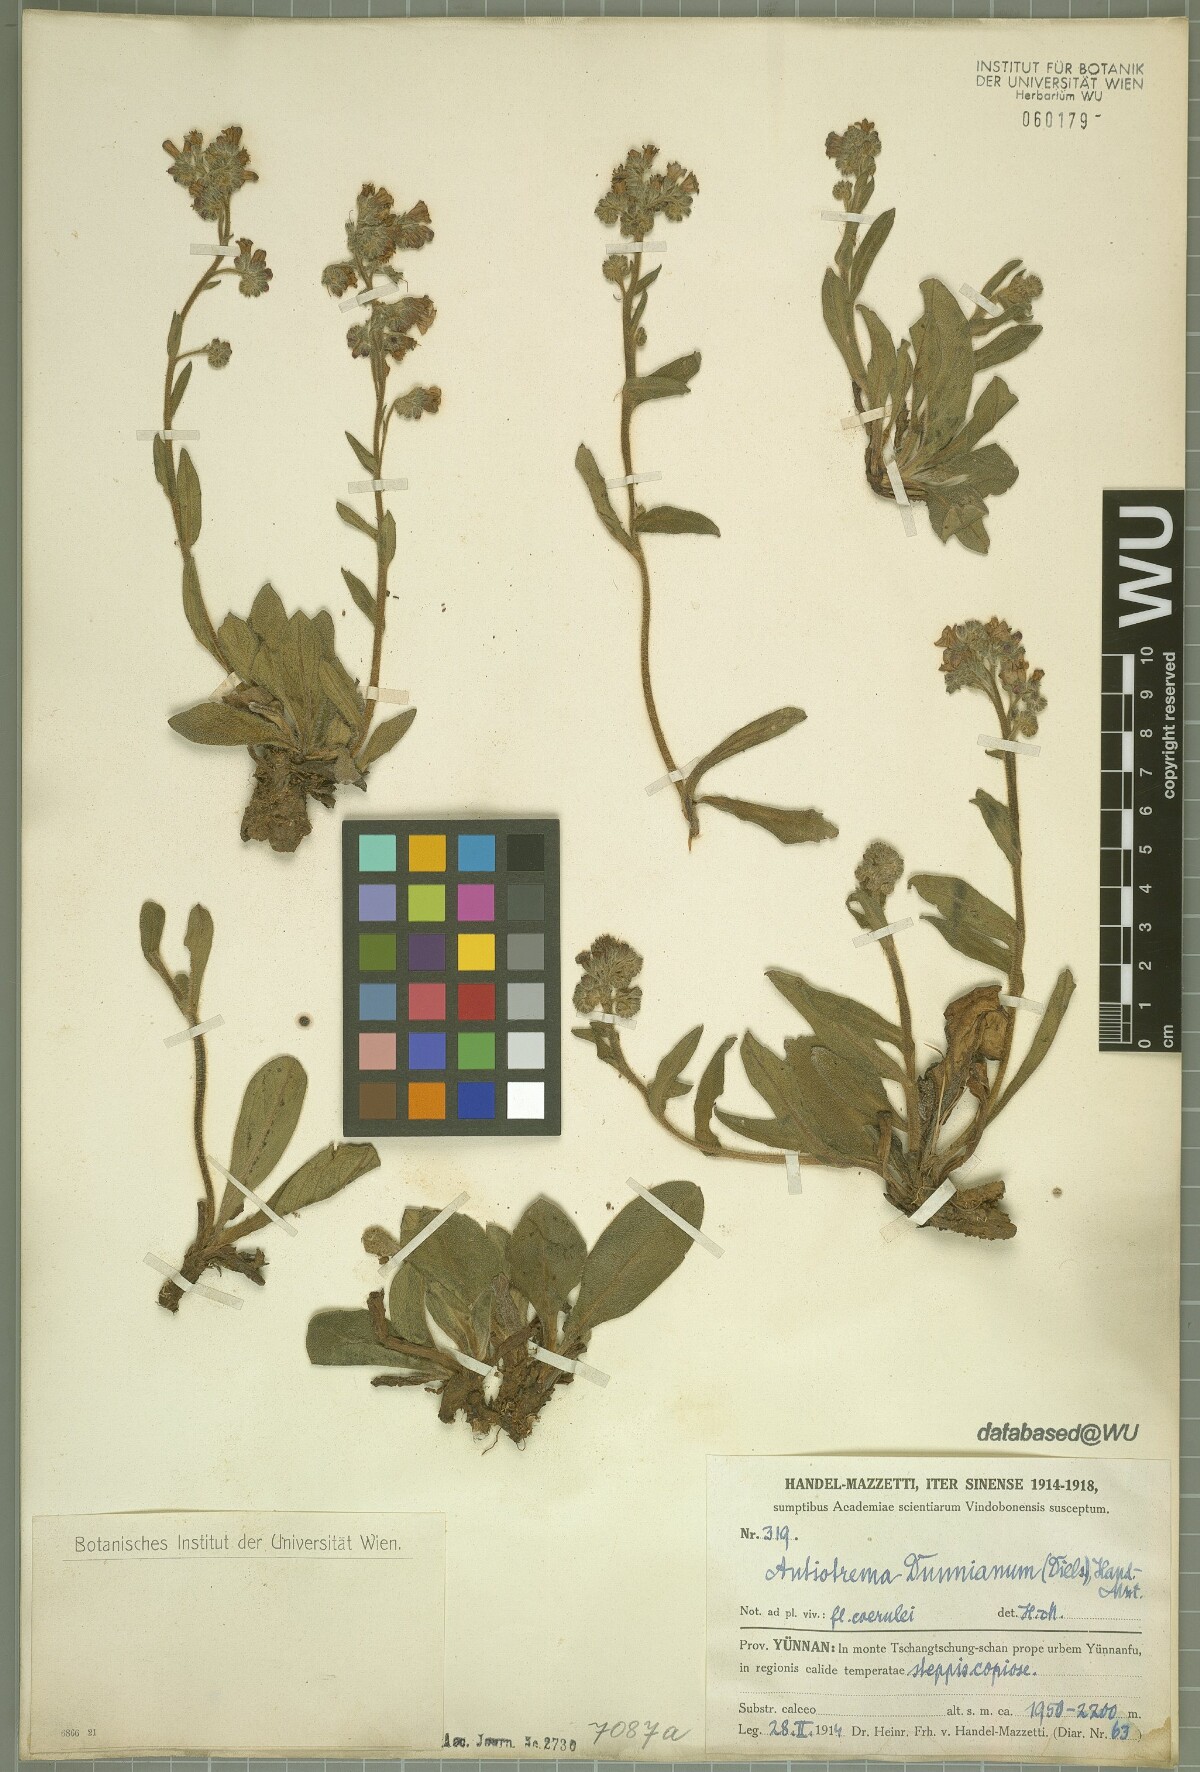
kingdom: Plantae
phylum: Tracheophyta
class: Magnoliopsida
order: Boraginales
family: Boraginaceae
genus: Antiotrema
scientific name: Antiotrema dunnianum
